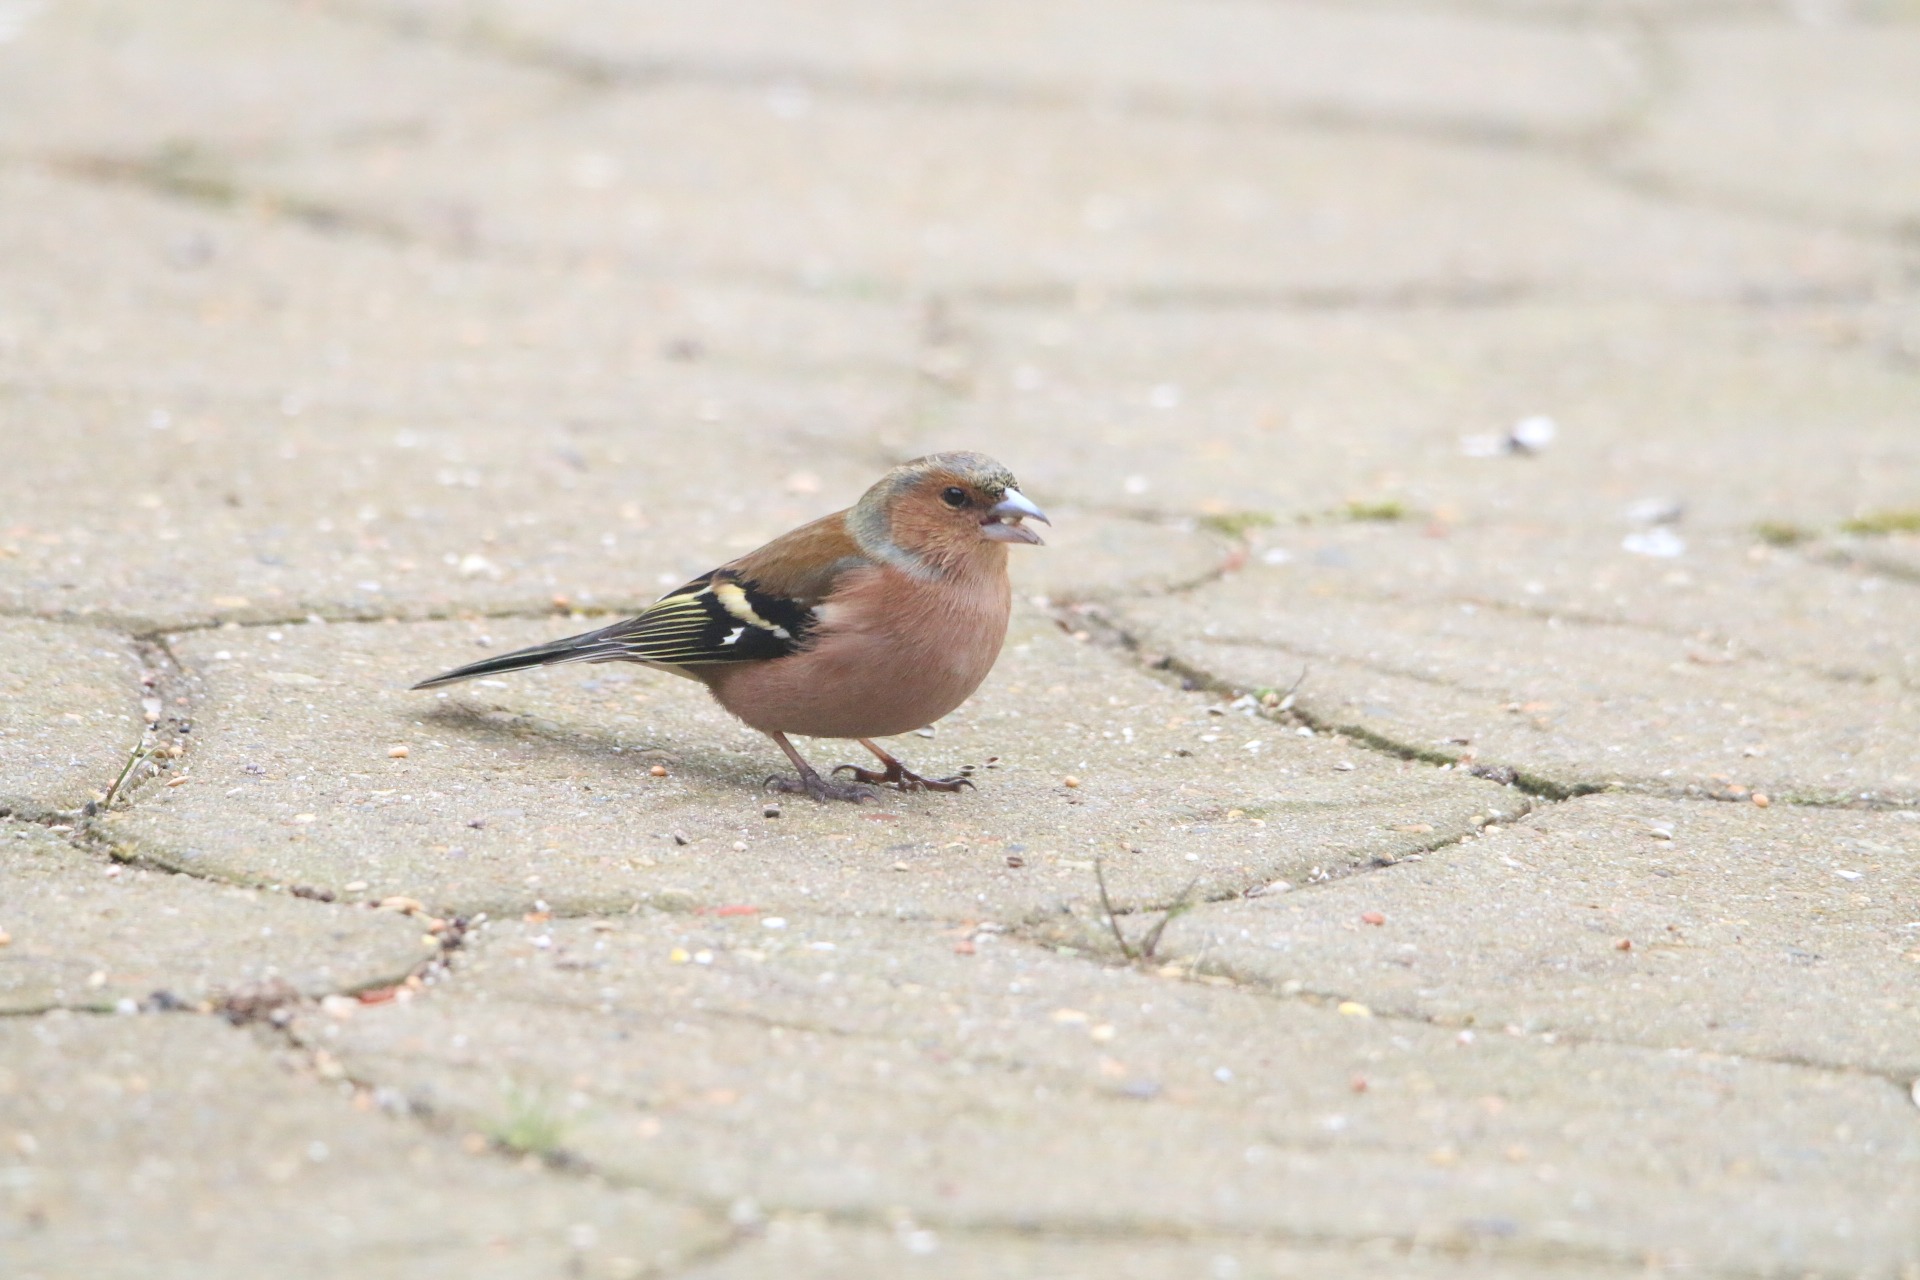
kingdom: Animalia
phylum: Chordata
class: Aves
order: Passeriformes
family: Fringillidae
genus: Fringilla
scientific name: Fringilla coelebs
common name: Bogfinke
